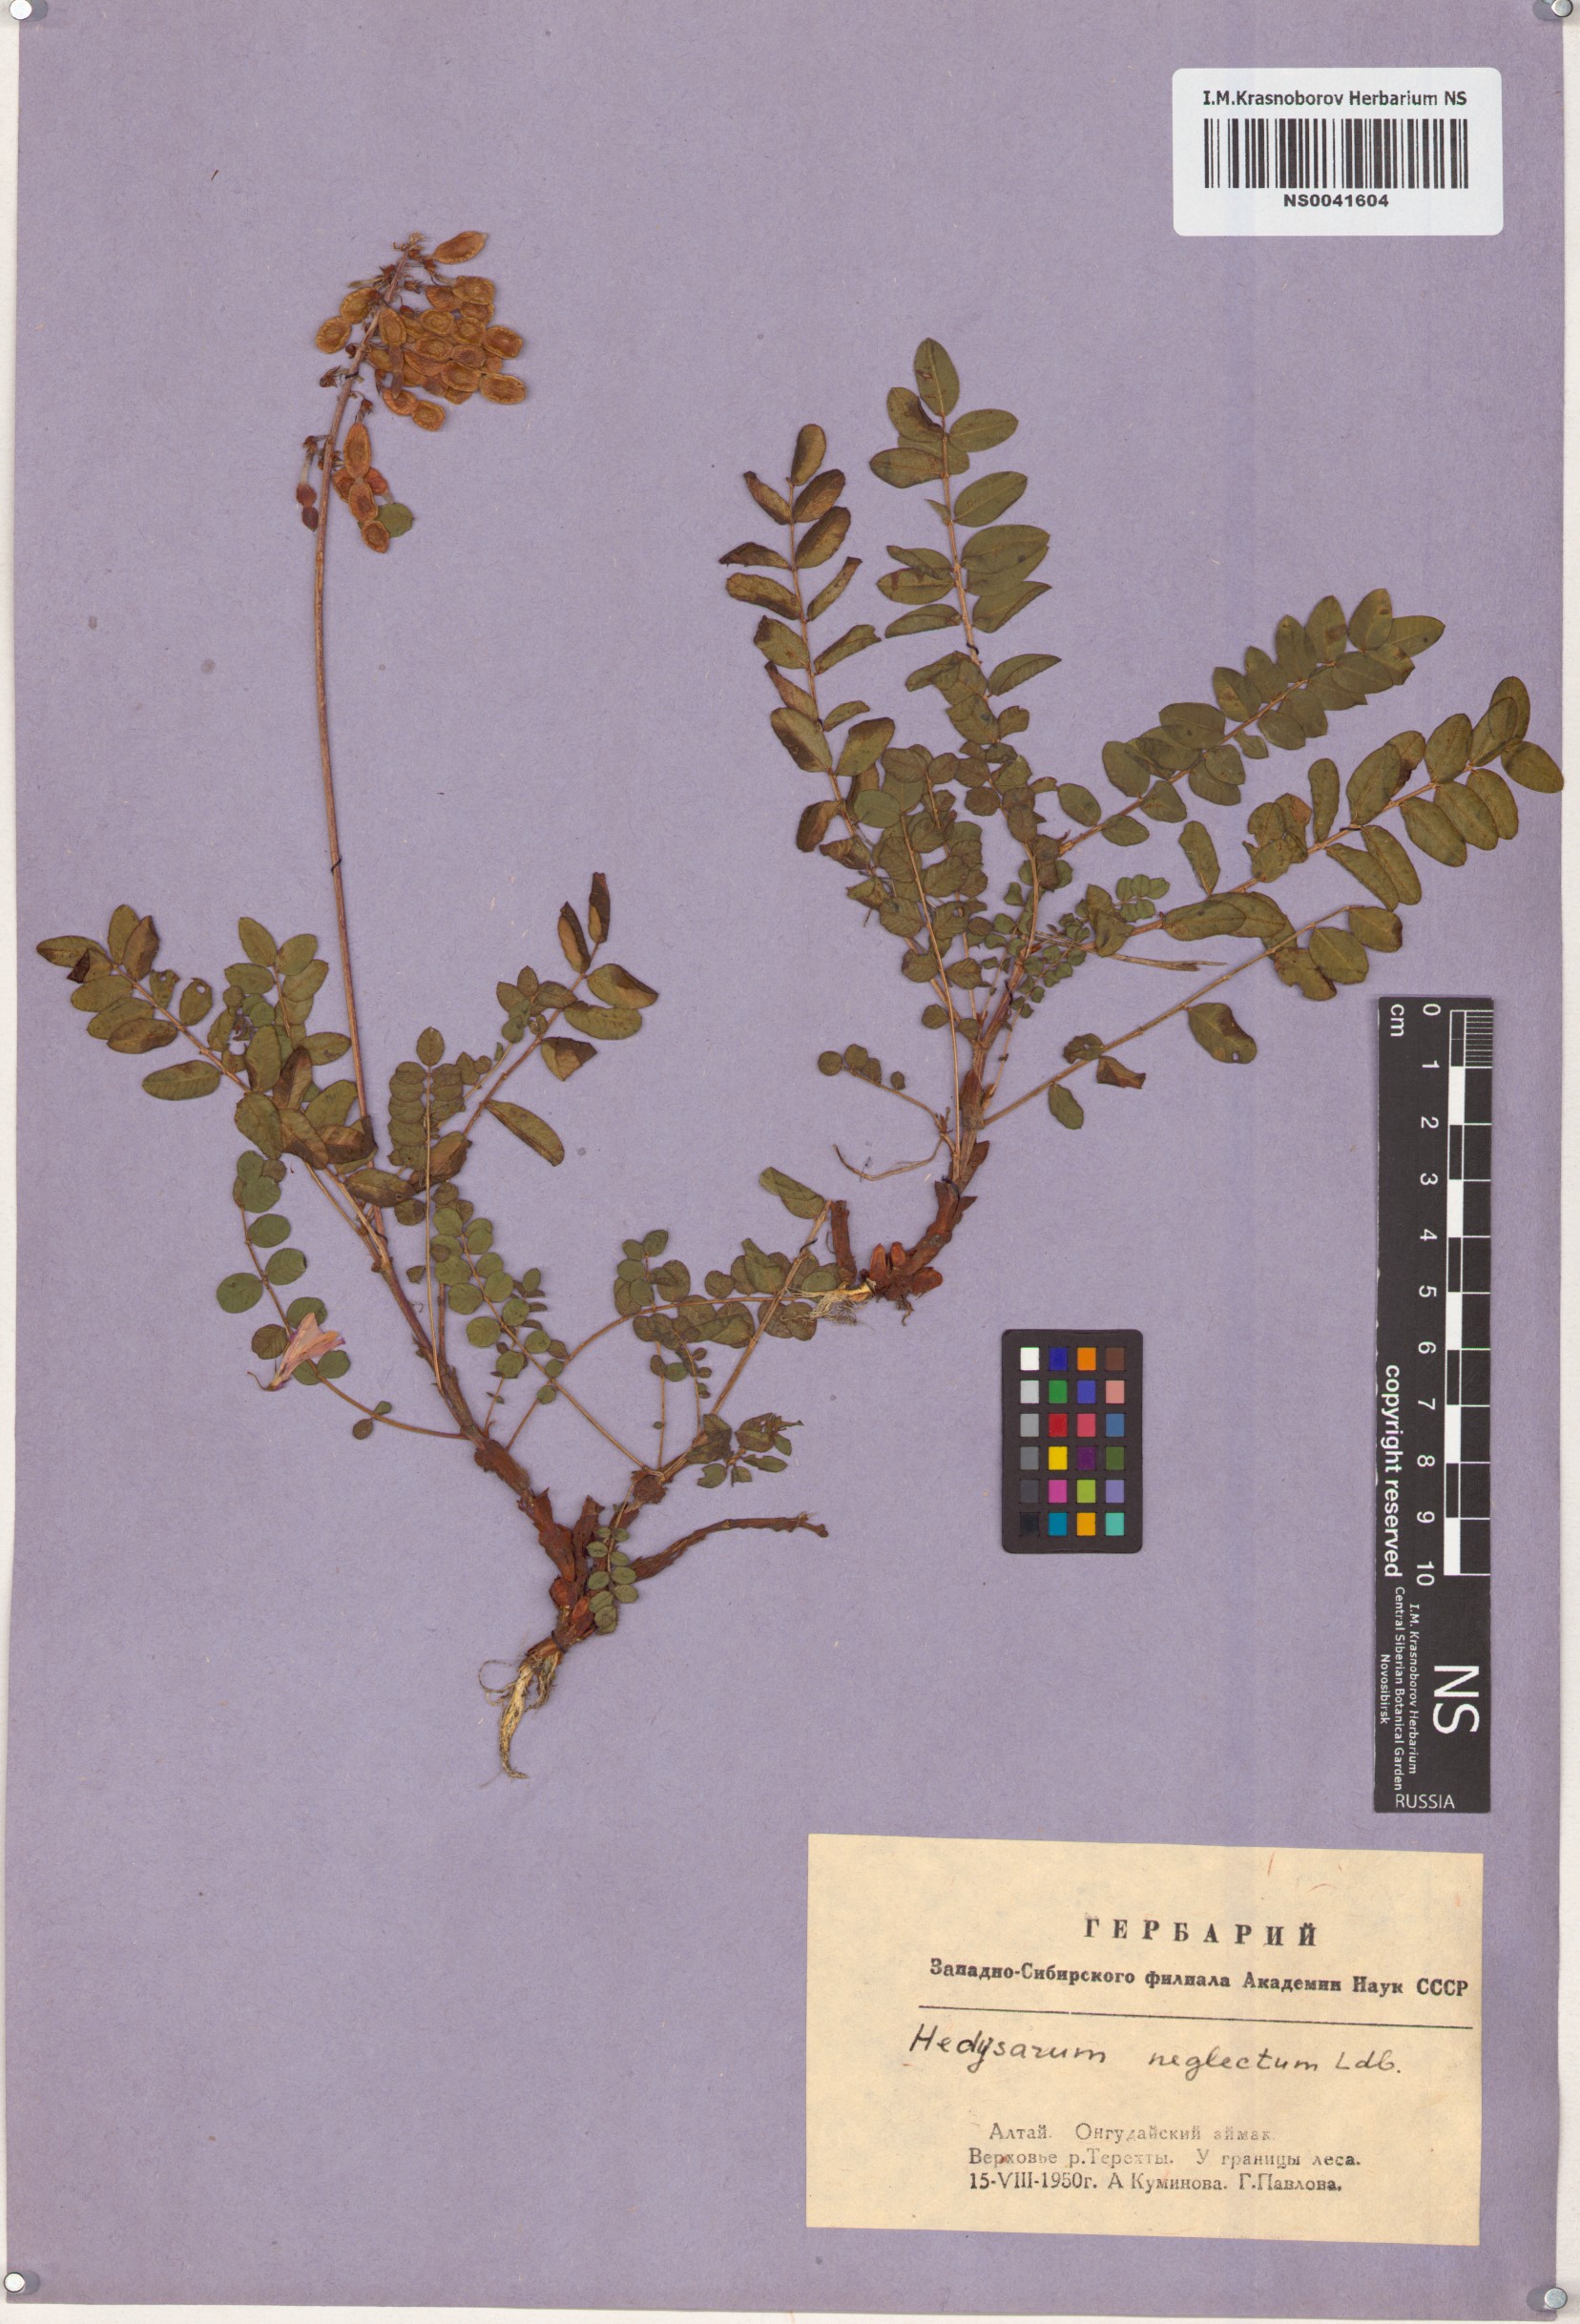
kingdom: Plantae
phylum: Tracheophyta
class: Magnoliopsida
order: Fabales
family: Fabaceae
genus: Hedysarum
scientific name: Hedysarum neglectum
